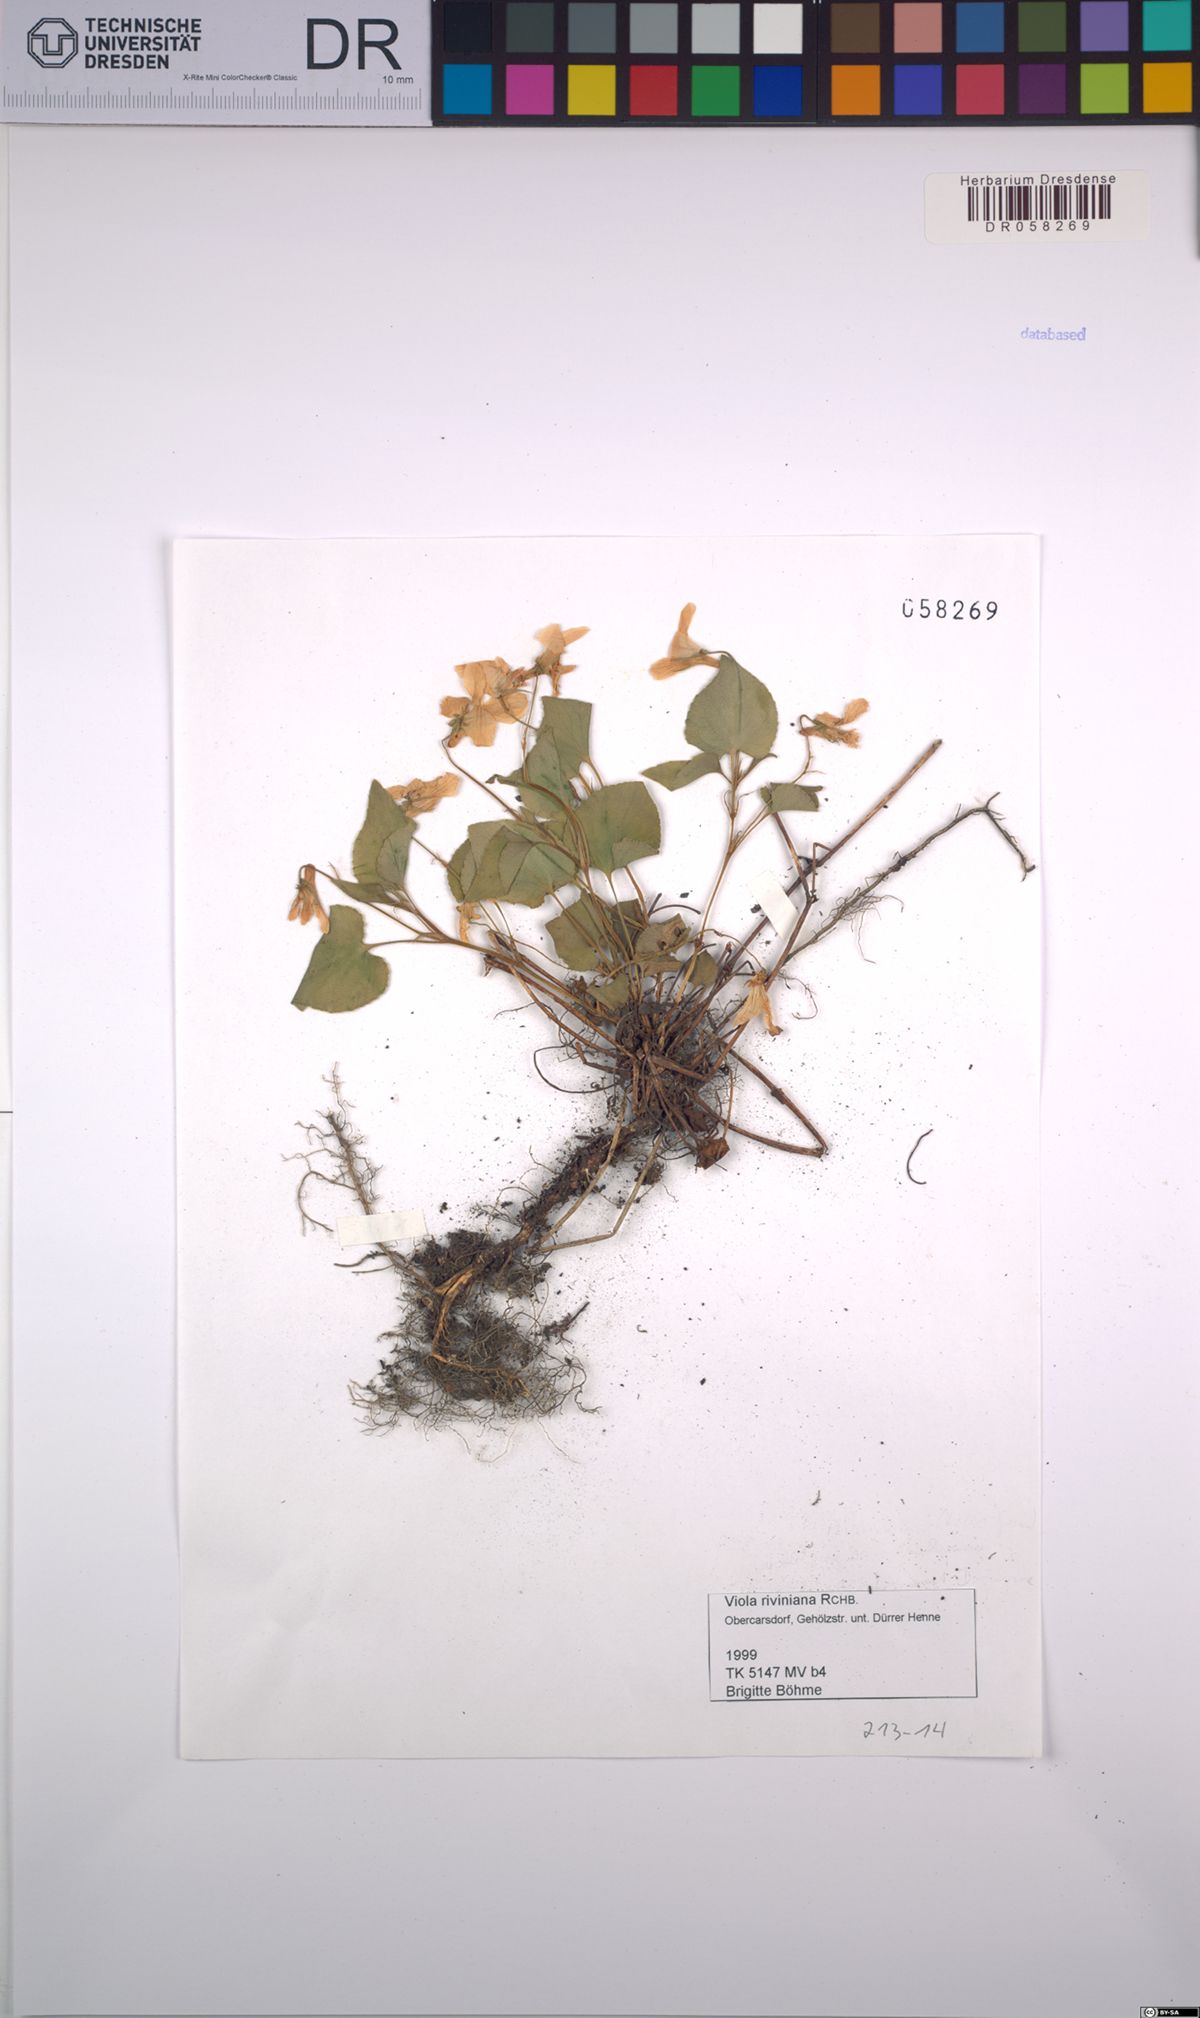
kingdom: Plantae
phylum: Tracheophyta
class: Magnoliopsida
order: Malpighiales
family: Violaceae
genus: Viola
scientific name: Viola riviniana
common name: Common dog-violet
